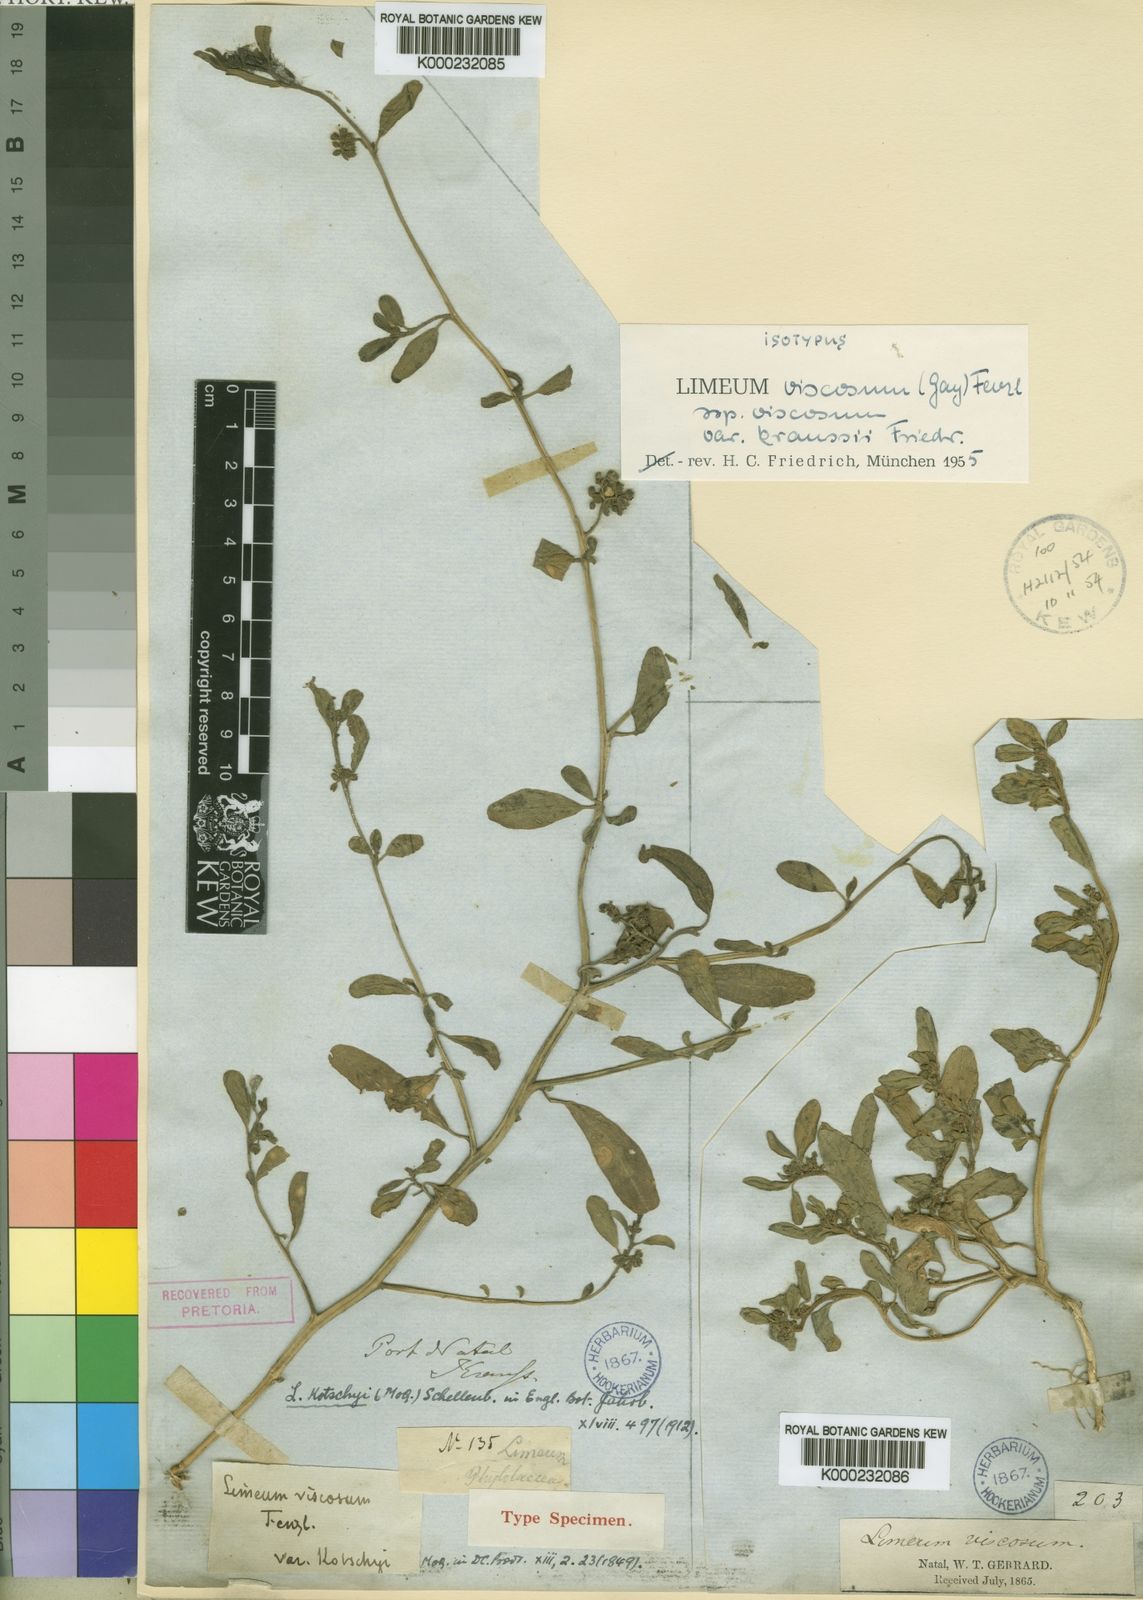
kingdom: Plantae
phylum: Tracheophyta
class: Magnoliopsida
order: Caryophyllales
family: Limeaceae
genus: Limeum
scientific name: Limeum viscosum
